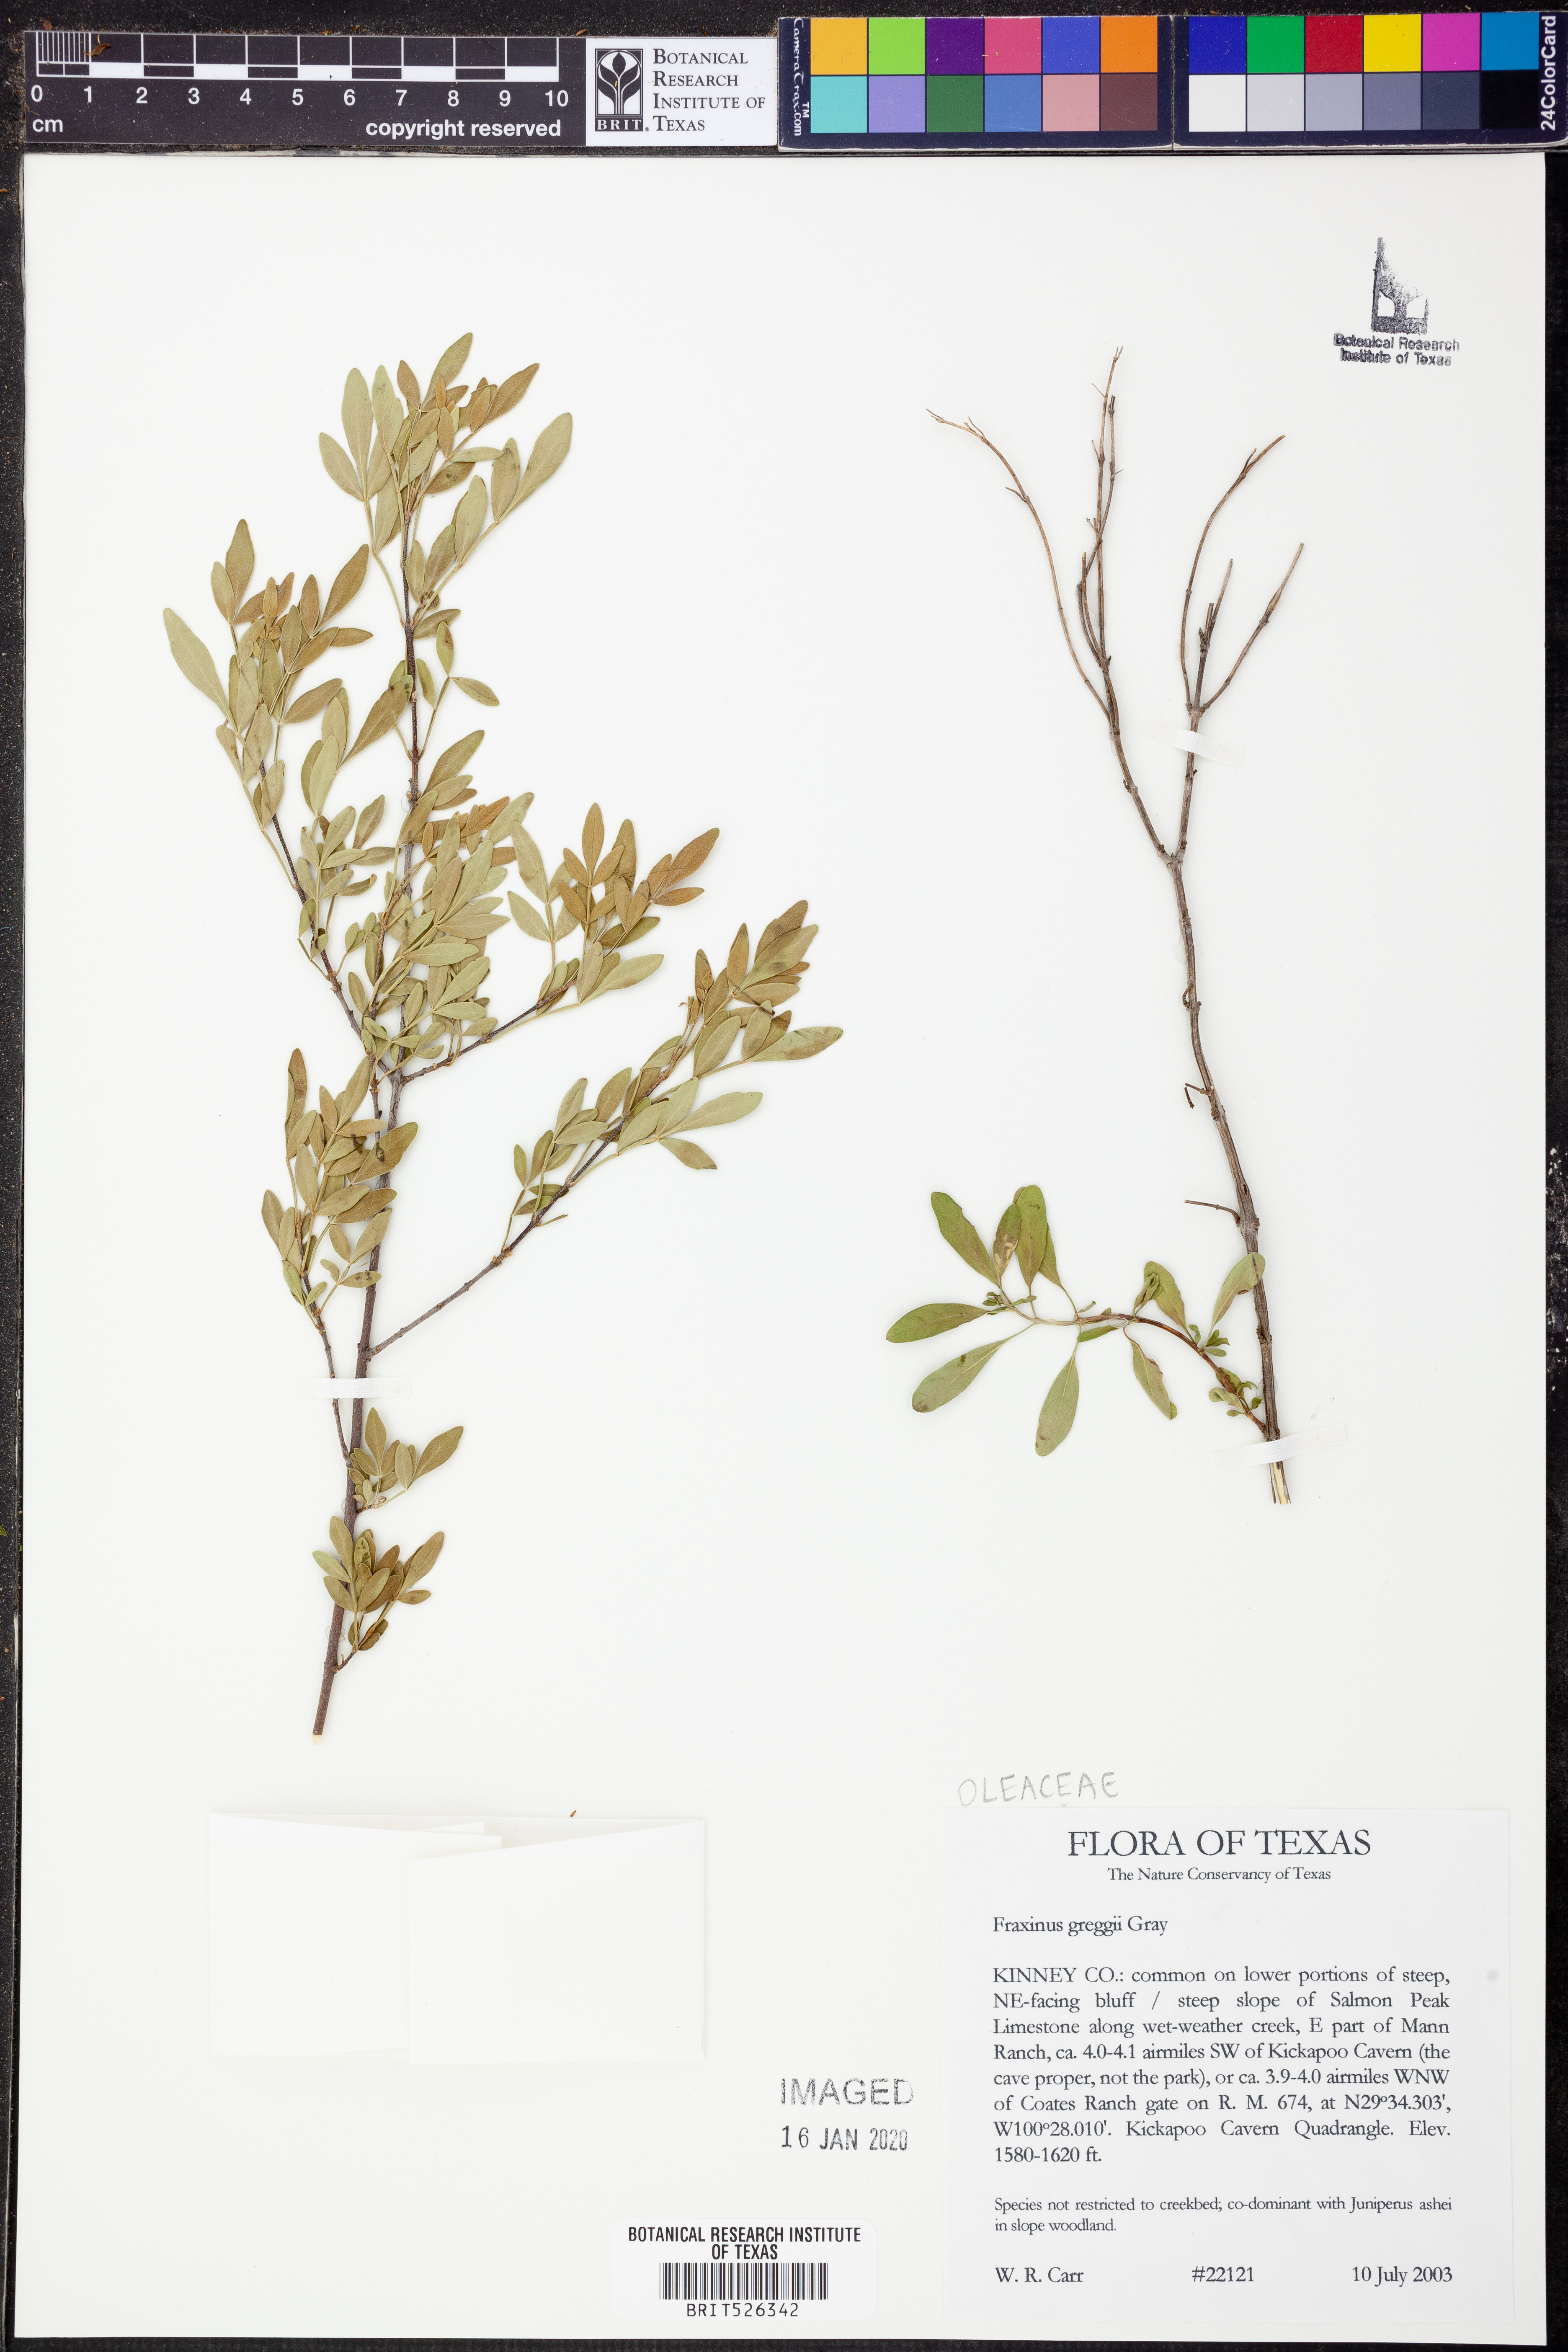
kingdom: Plantae
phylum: Tracheophyta
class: Magnoliopsida
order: Lamiales
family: Oleaceae
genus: Fraxinus
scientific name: Fraxinus greggii
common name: Gregg ash
